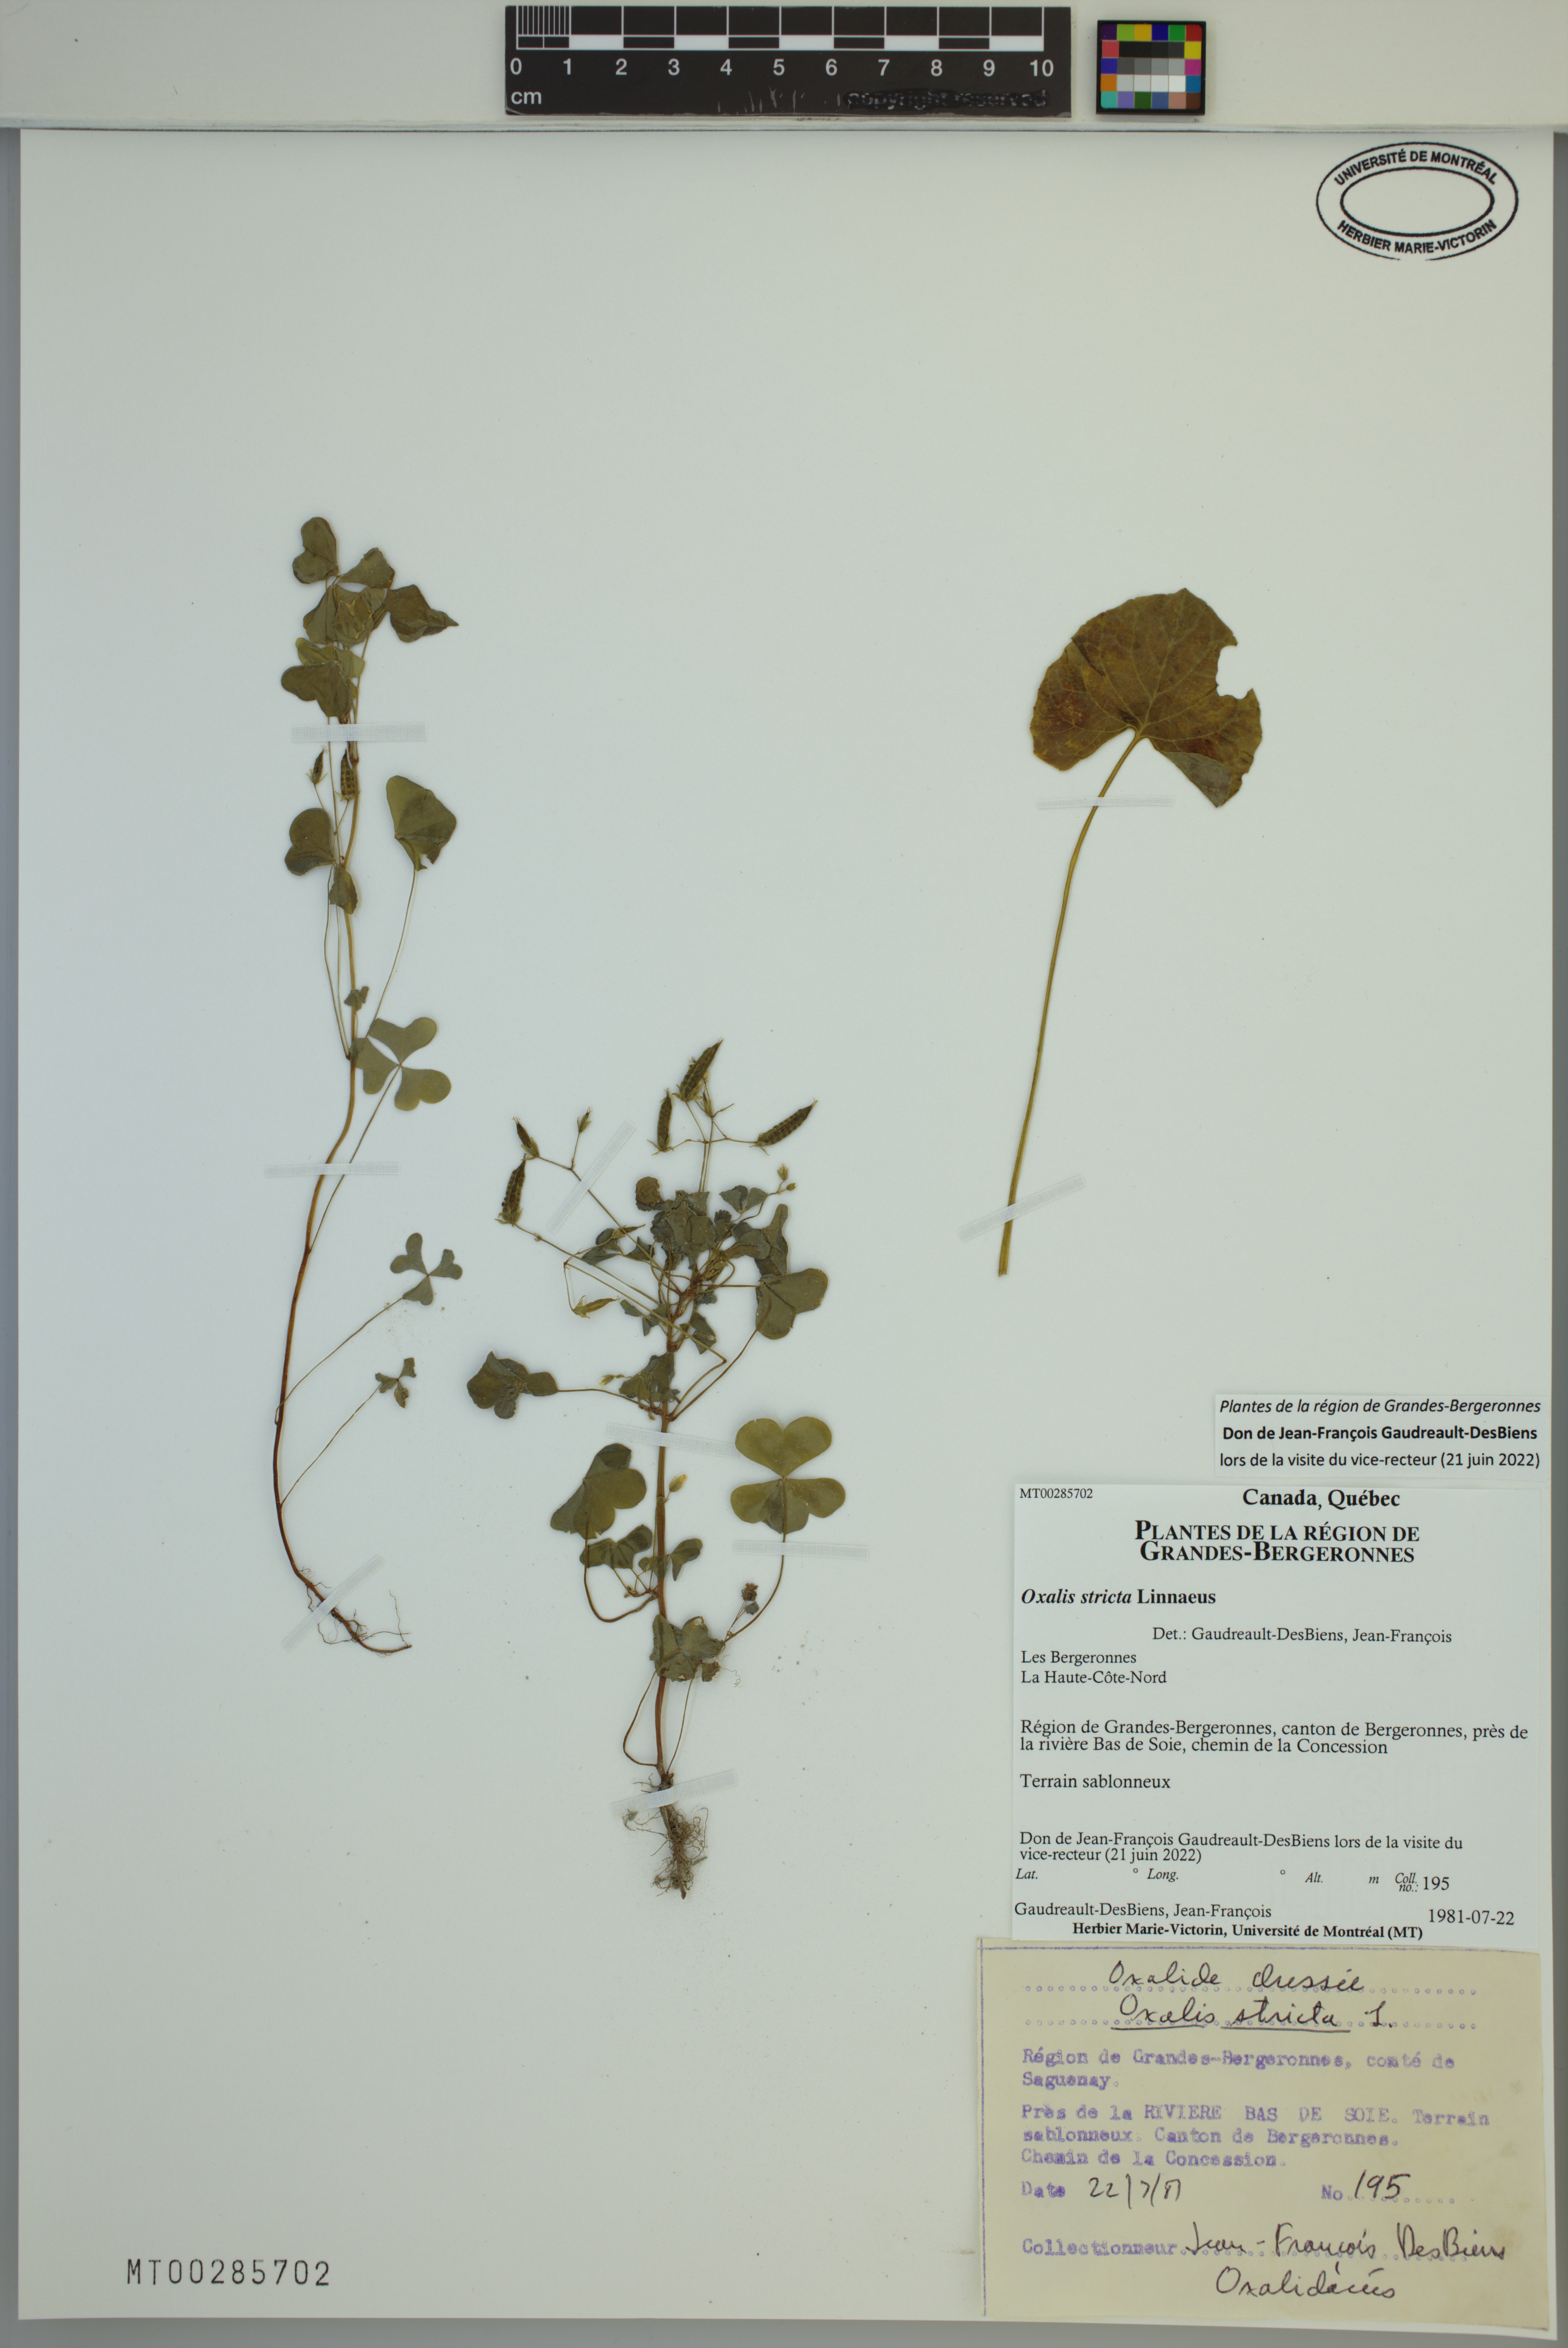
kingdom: Plantae
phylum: Tracheophyta
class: Magnoliopsida
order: Oxalidales
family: Oxalidaceae
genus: Oxalis
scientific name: Oxalis stricta
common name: Upright yellow-sorrel
